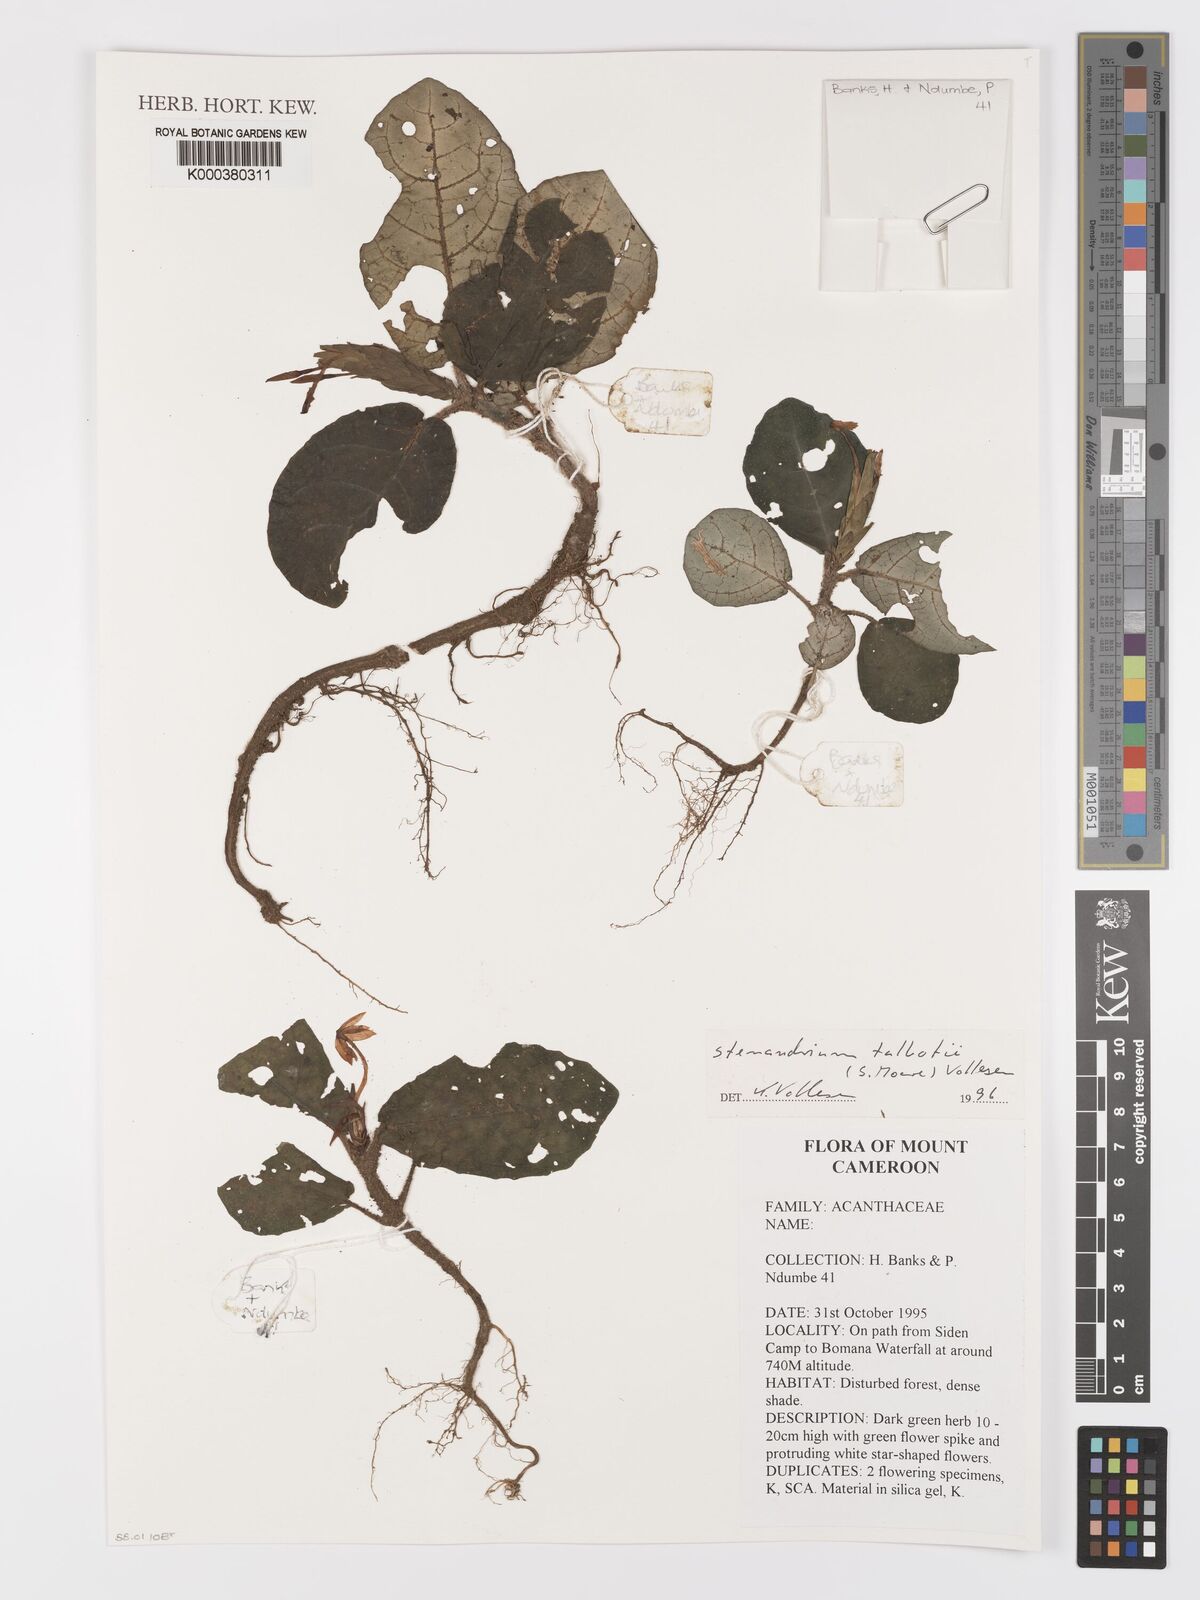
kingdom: Plantae
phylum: Tracheophyta
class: Magnoliopsida
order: Lamiales
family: Acanthaceae
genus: Stenandriopsis
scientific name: Stenandriopsis talbotii
